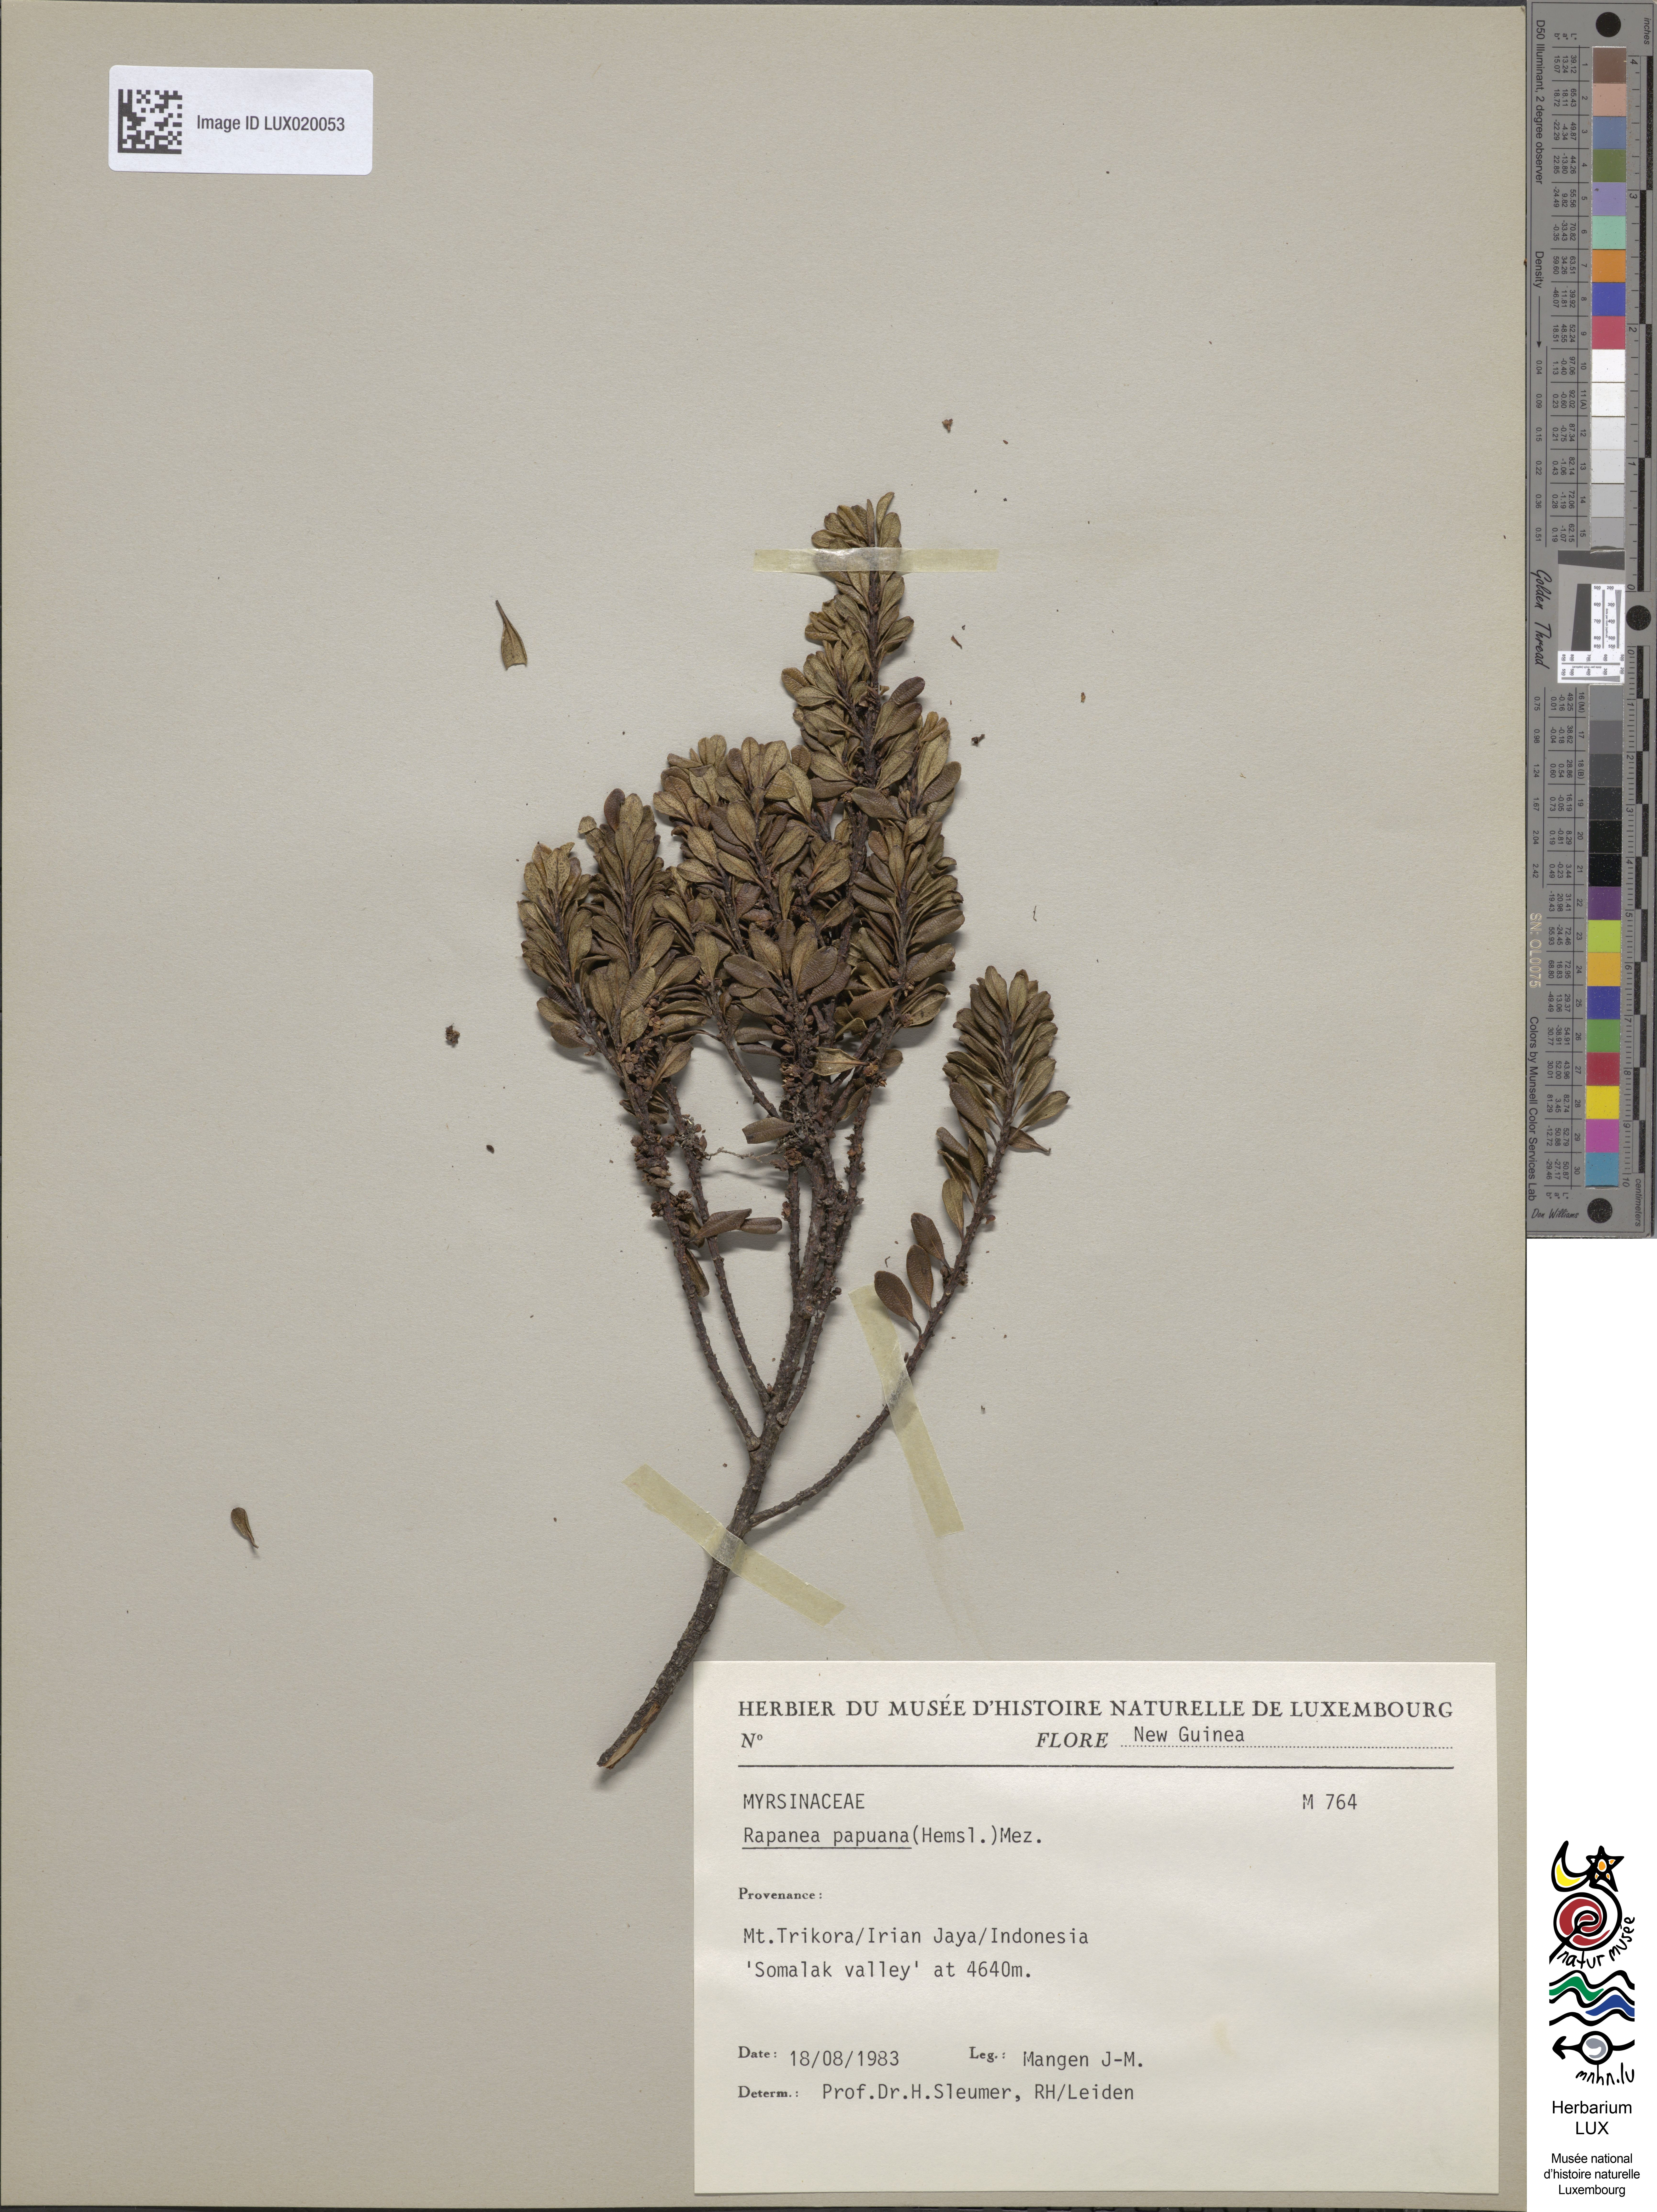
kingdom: Plantae
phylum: Tracheophyta
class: Magnoliopsida
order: Ericales
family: Primulaceae
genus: Myrsine
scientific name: Myrsine papuana
